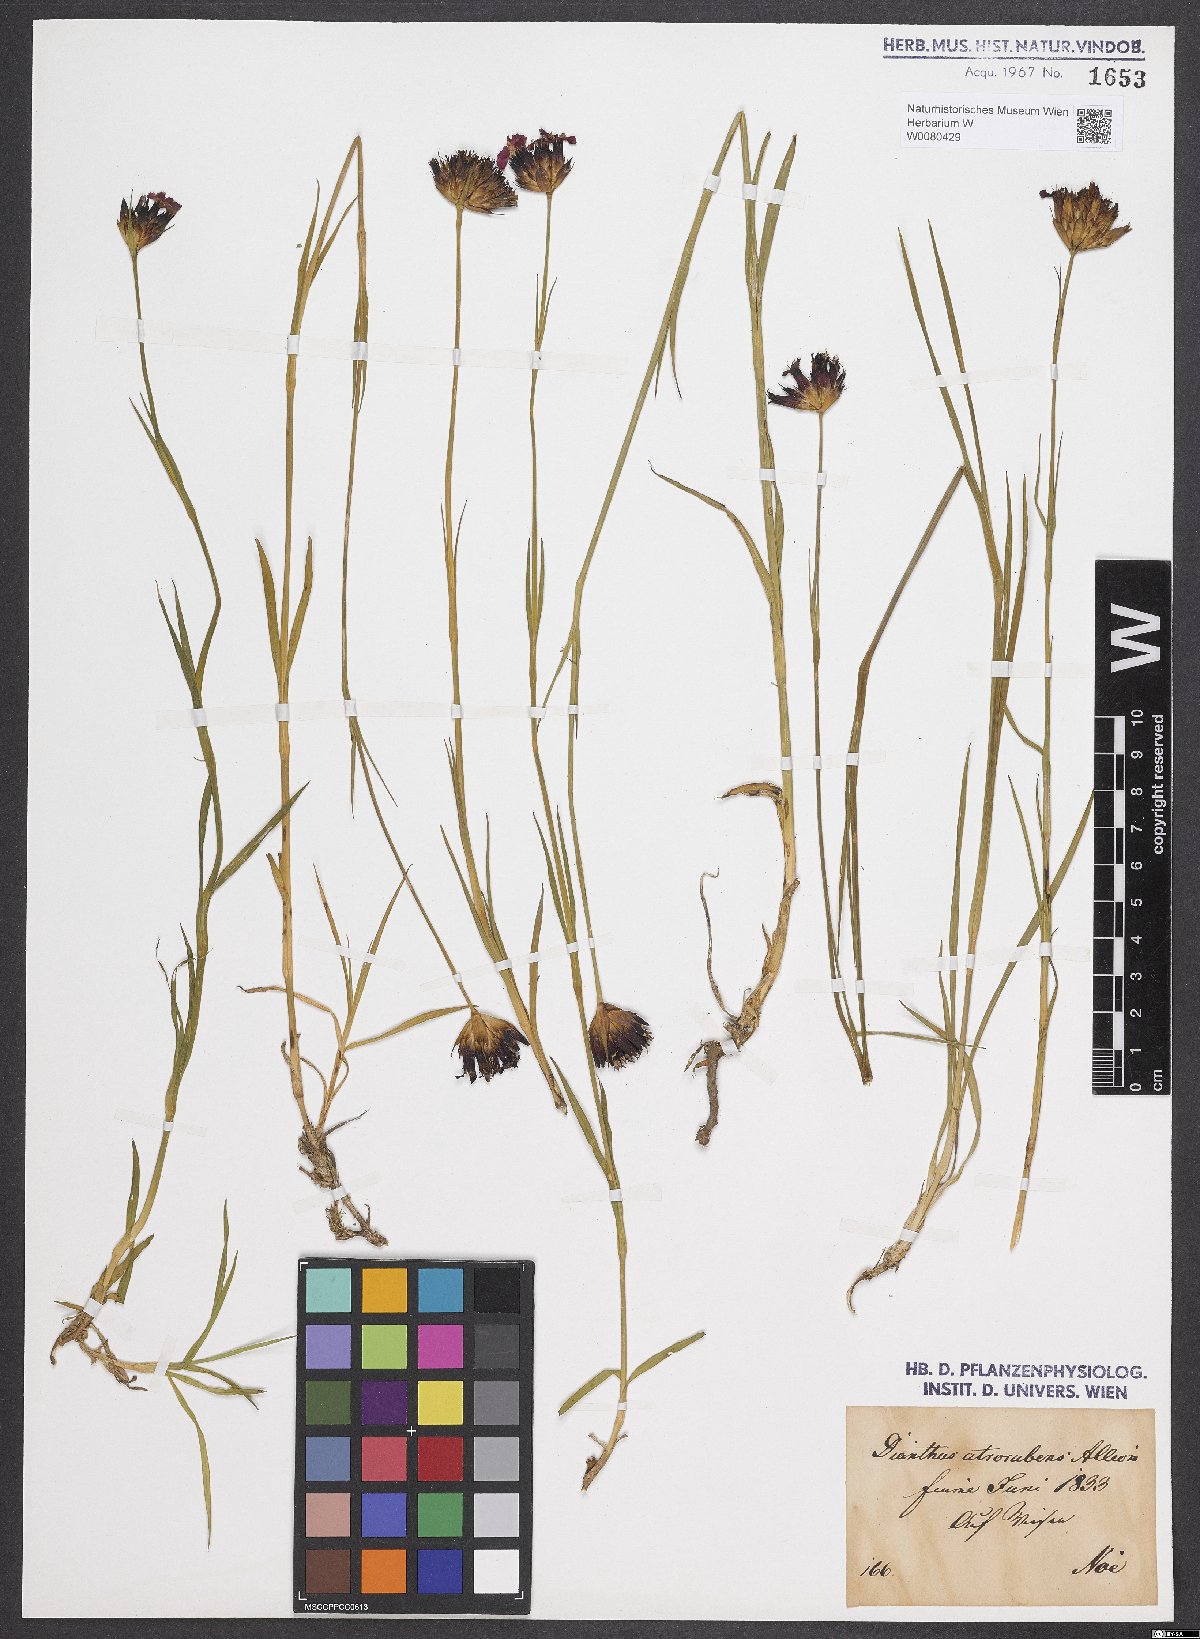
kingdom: Plantae
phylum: Tracheophyta
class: Magnoliopsida
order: Caryophyllales
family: Caryophyllaceae
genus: Dianthus
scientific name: Dianthus carthusianorum
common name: Carthusian pink
